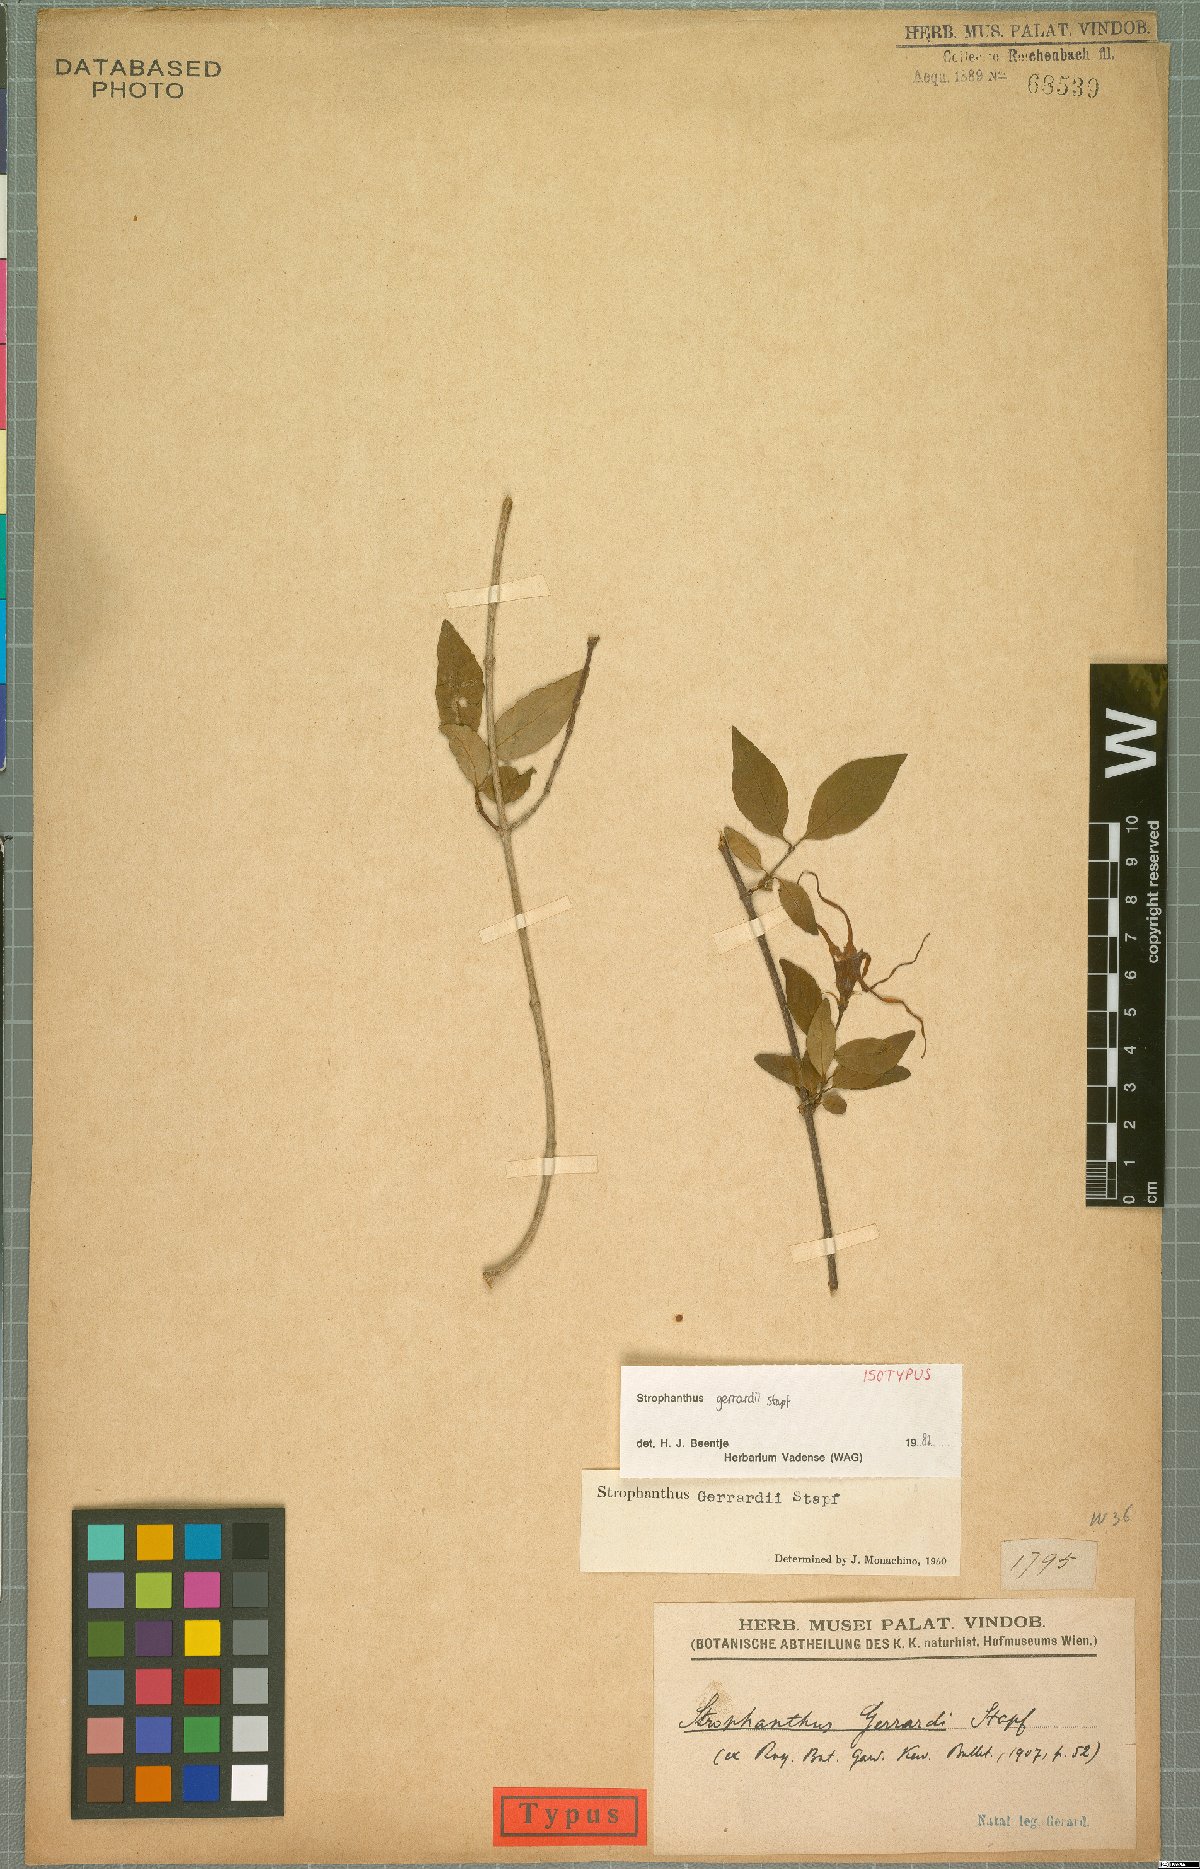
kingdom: Plantae
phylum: Tracheophyta
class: Magnoliopsida
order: Gentianales
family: Apocynaceae
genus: Strophanthus
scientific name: Strophanthus gerrardii
